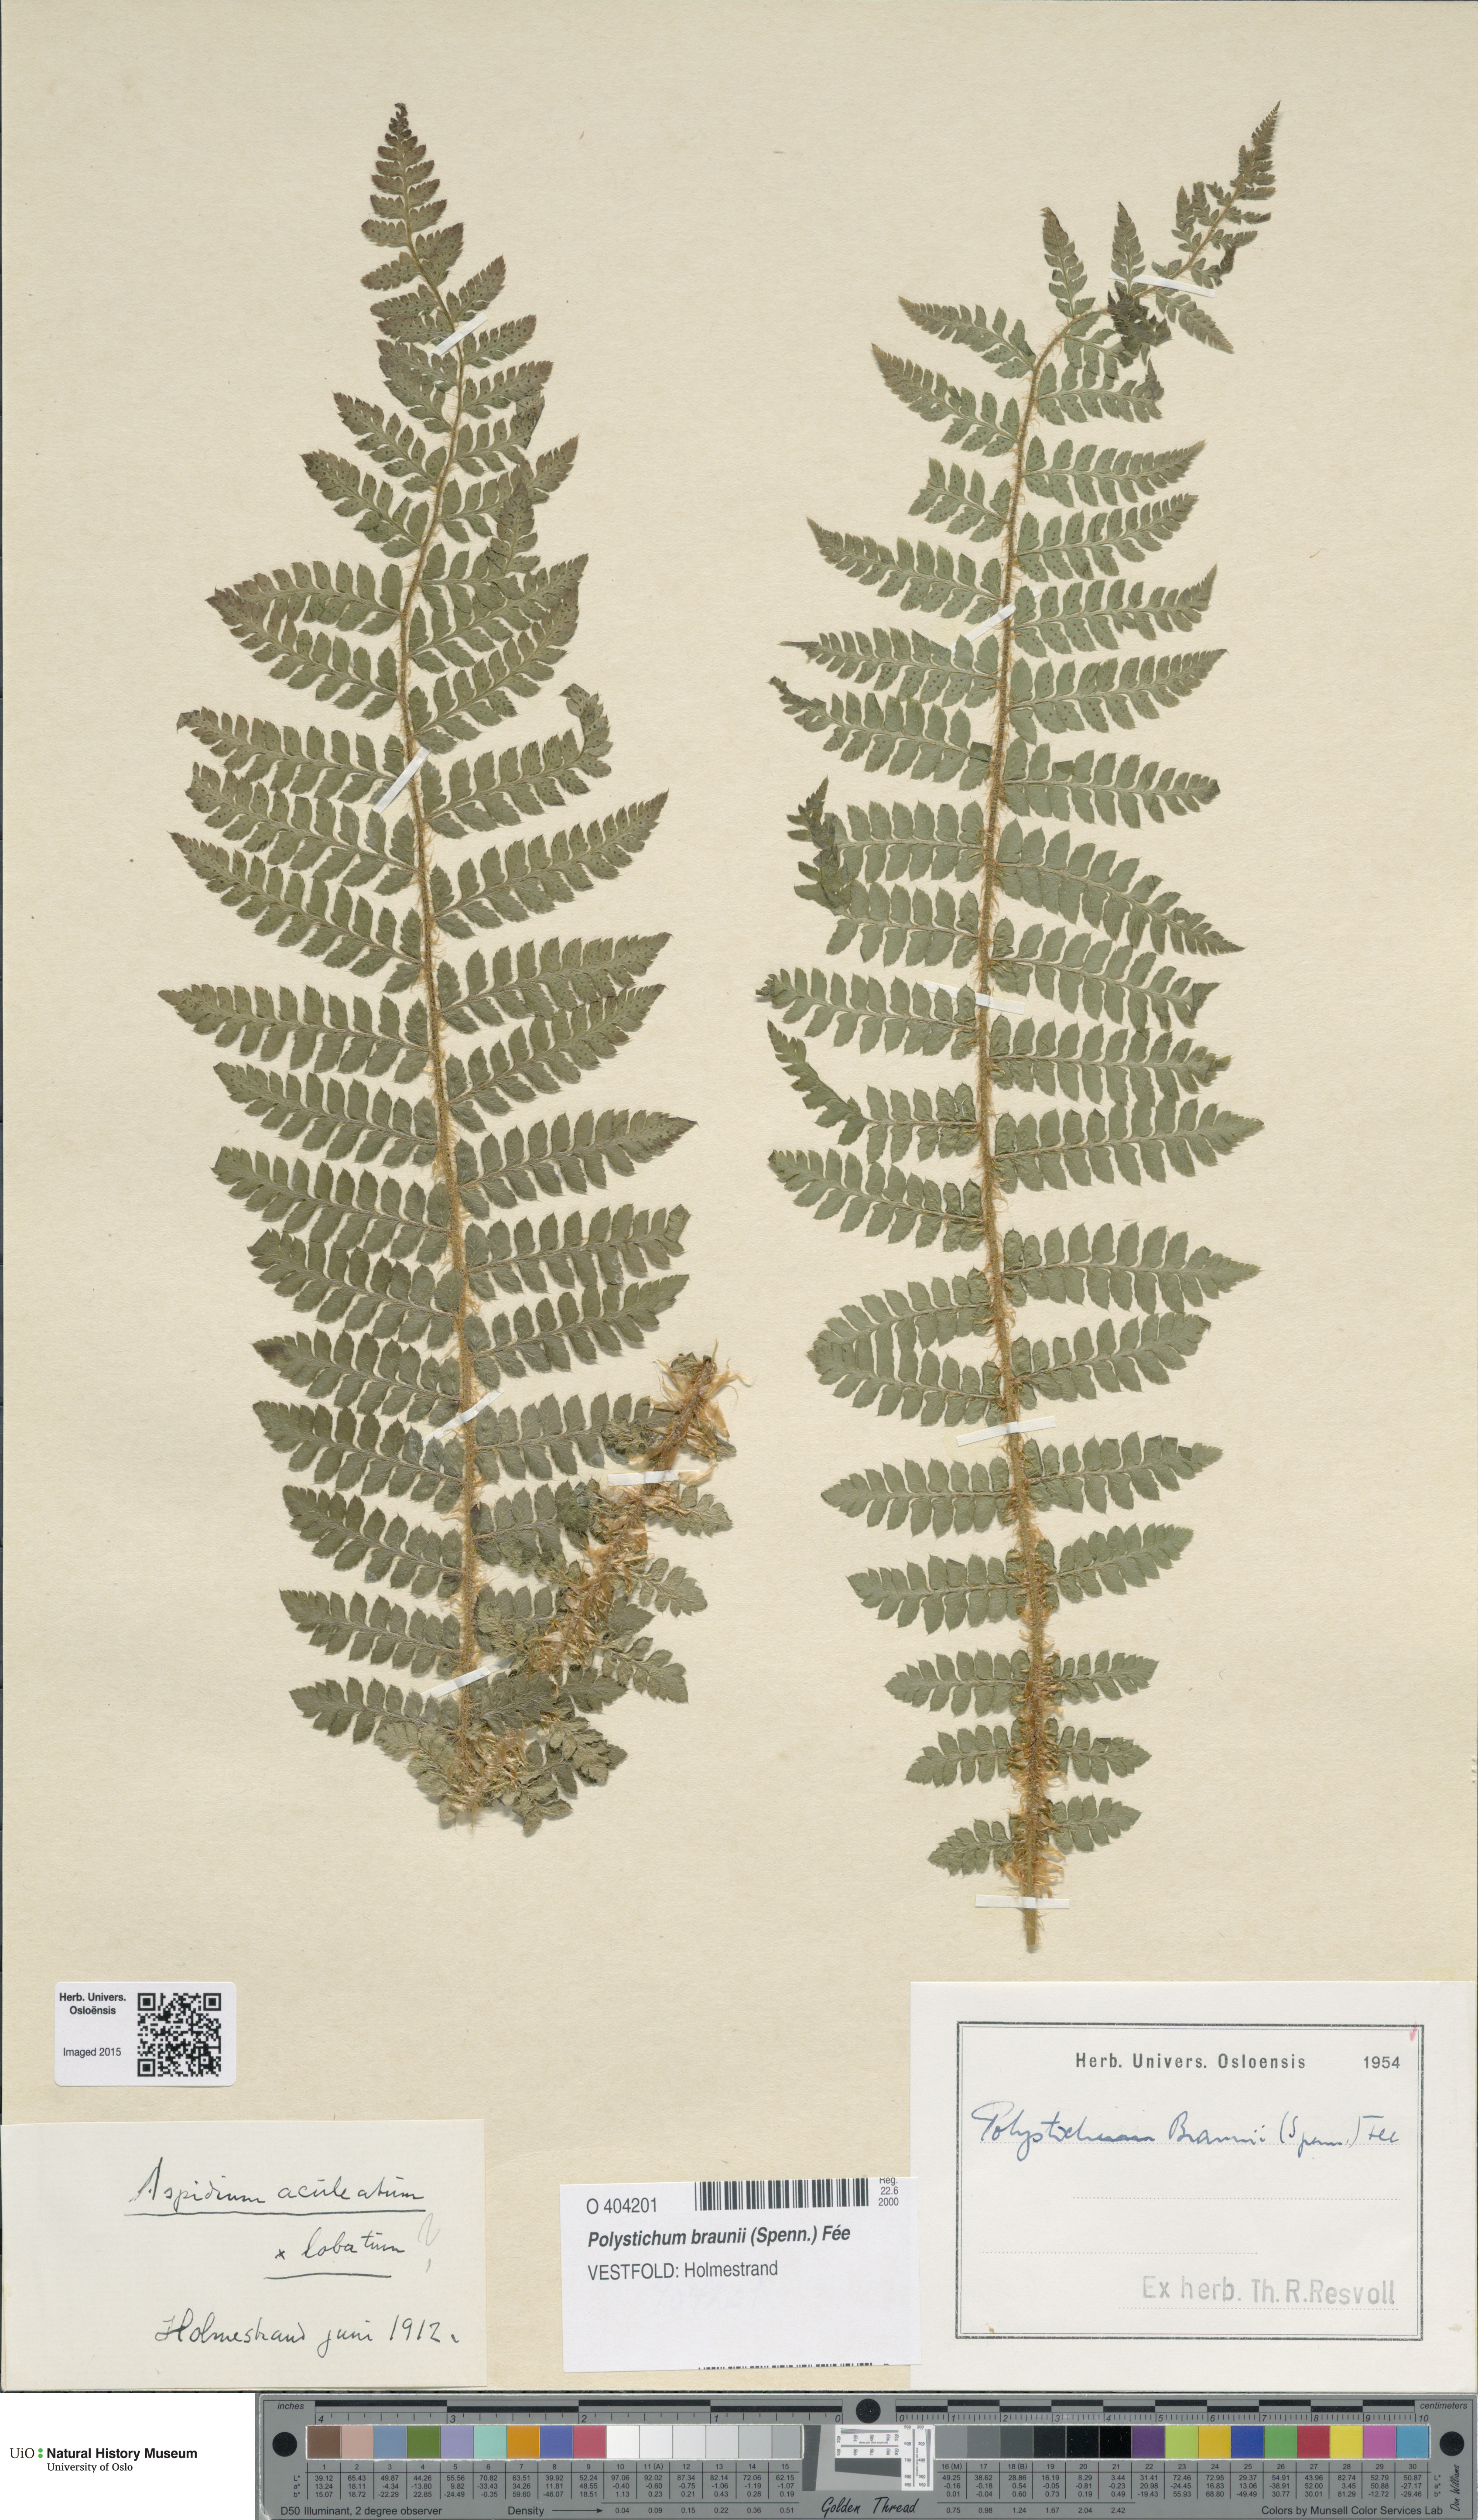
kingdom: Plantae
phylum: Tracheophyta
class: Polypodiopsida
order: Polypodiales
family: Dryopteridaceae
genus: Polystichum
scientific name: Polystichum braunii
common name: Braun's holly fern
